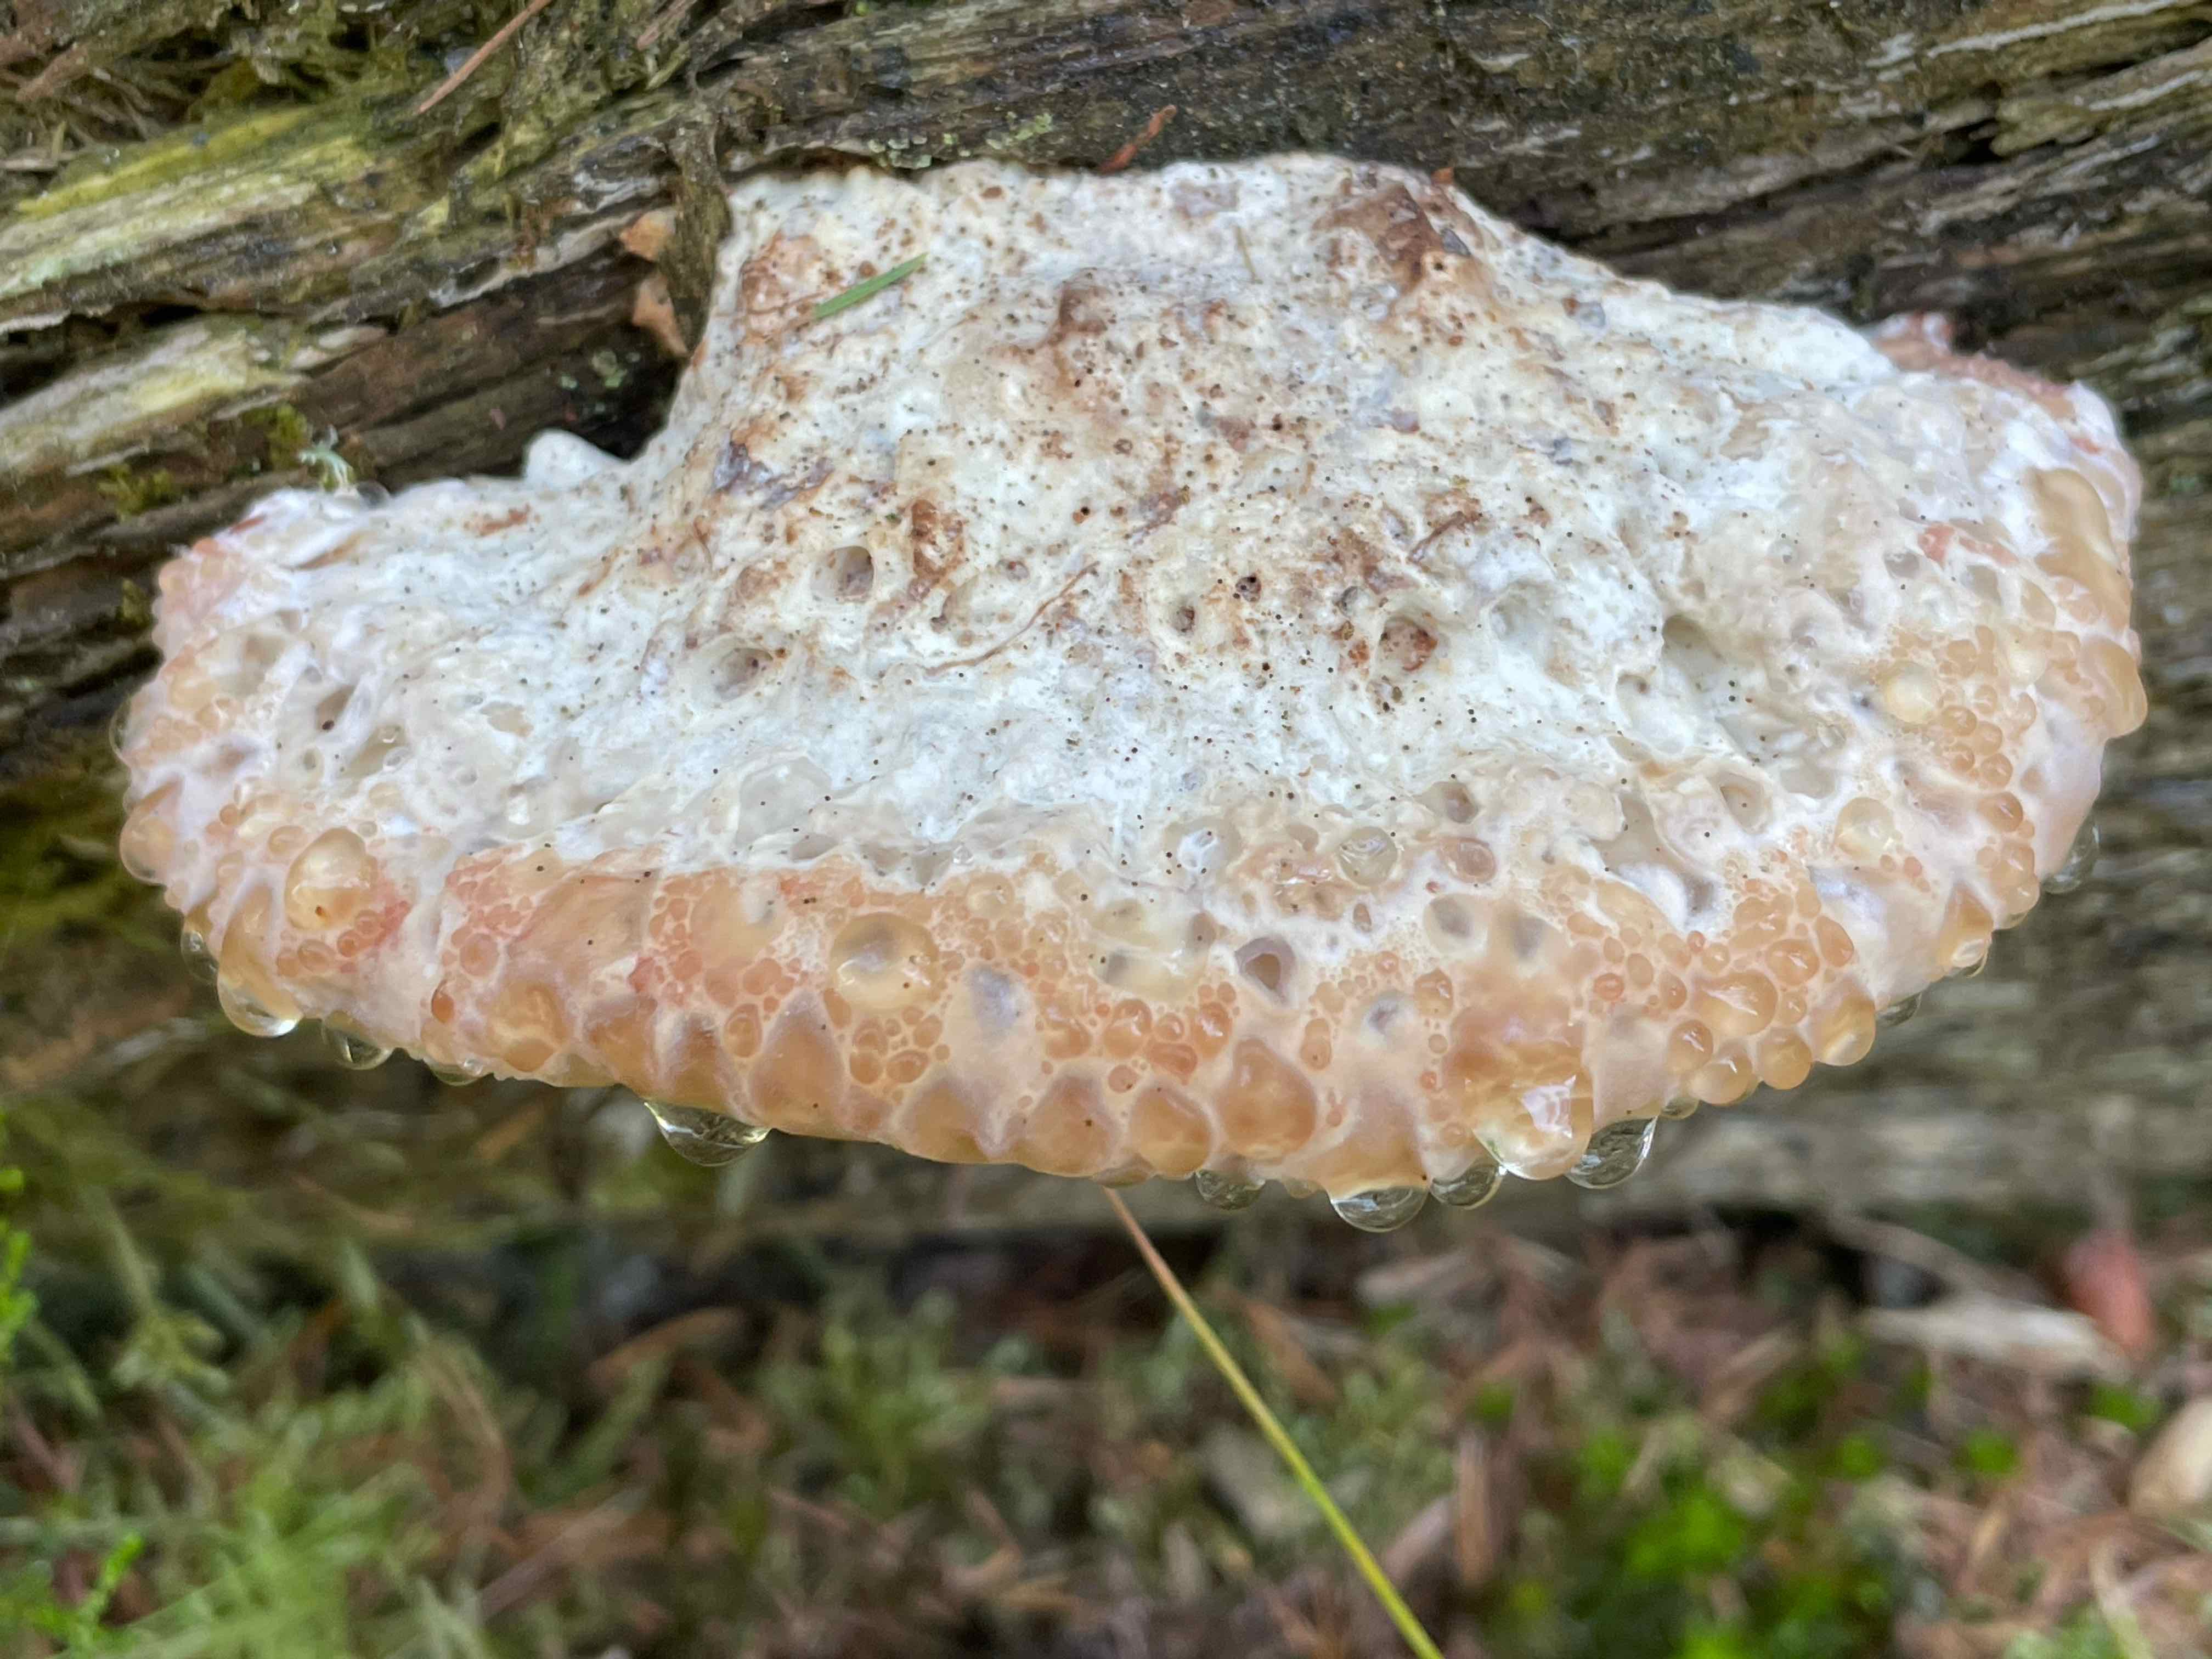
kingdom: Fungi
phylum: Basidiomycota
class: Agaricomycetes
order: Polyporales
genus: Calcipostia
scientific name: Calcipostia guttulata
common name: dråbe-kødporesvamp
